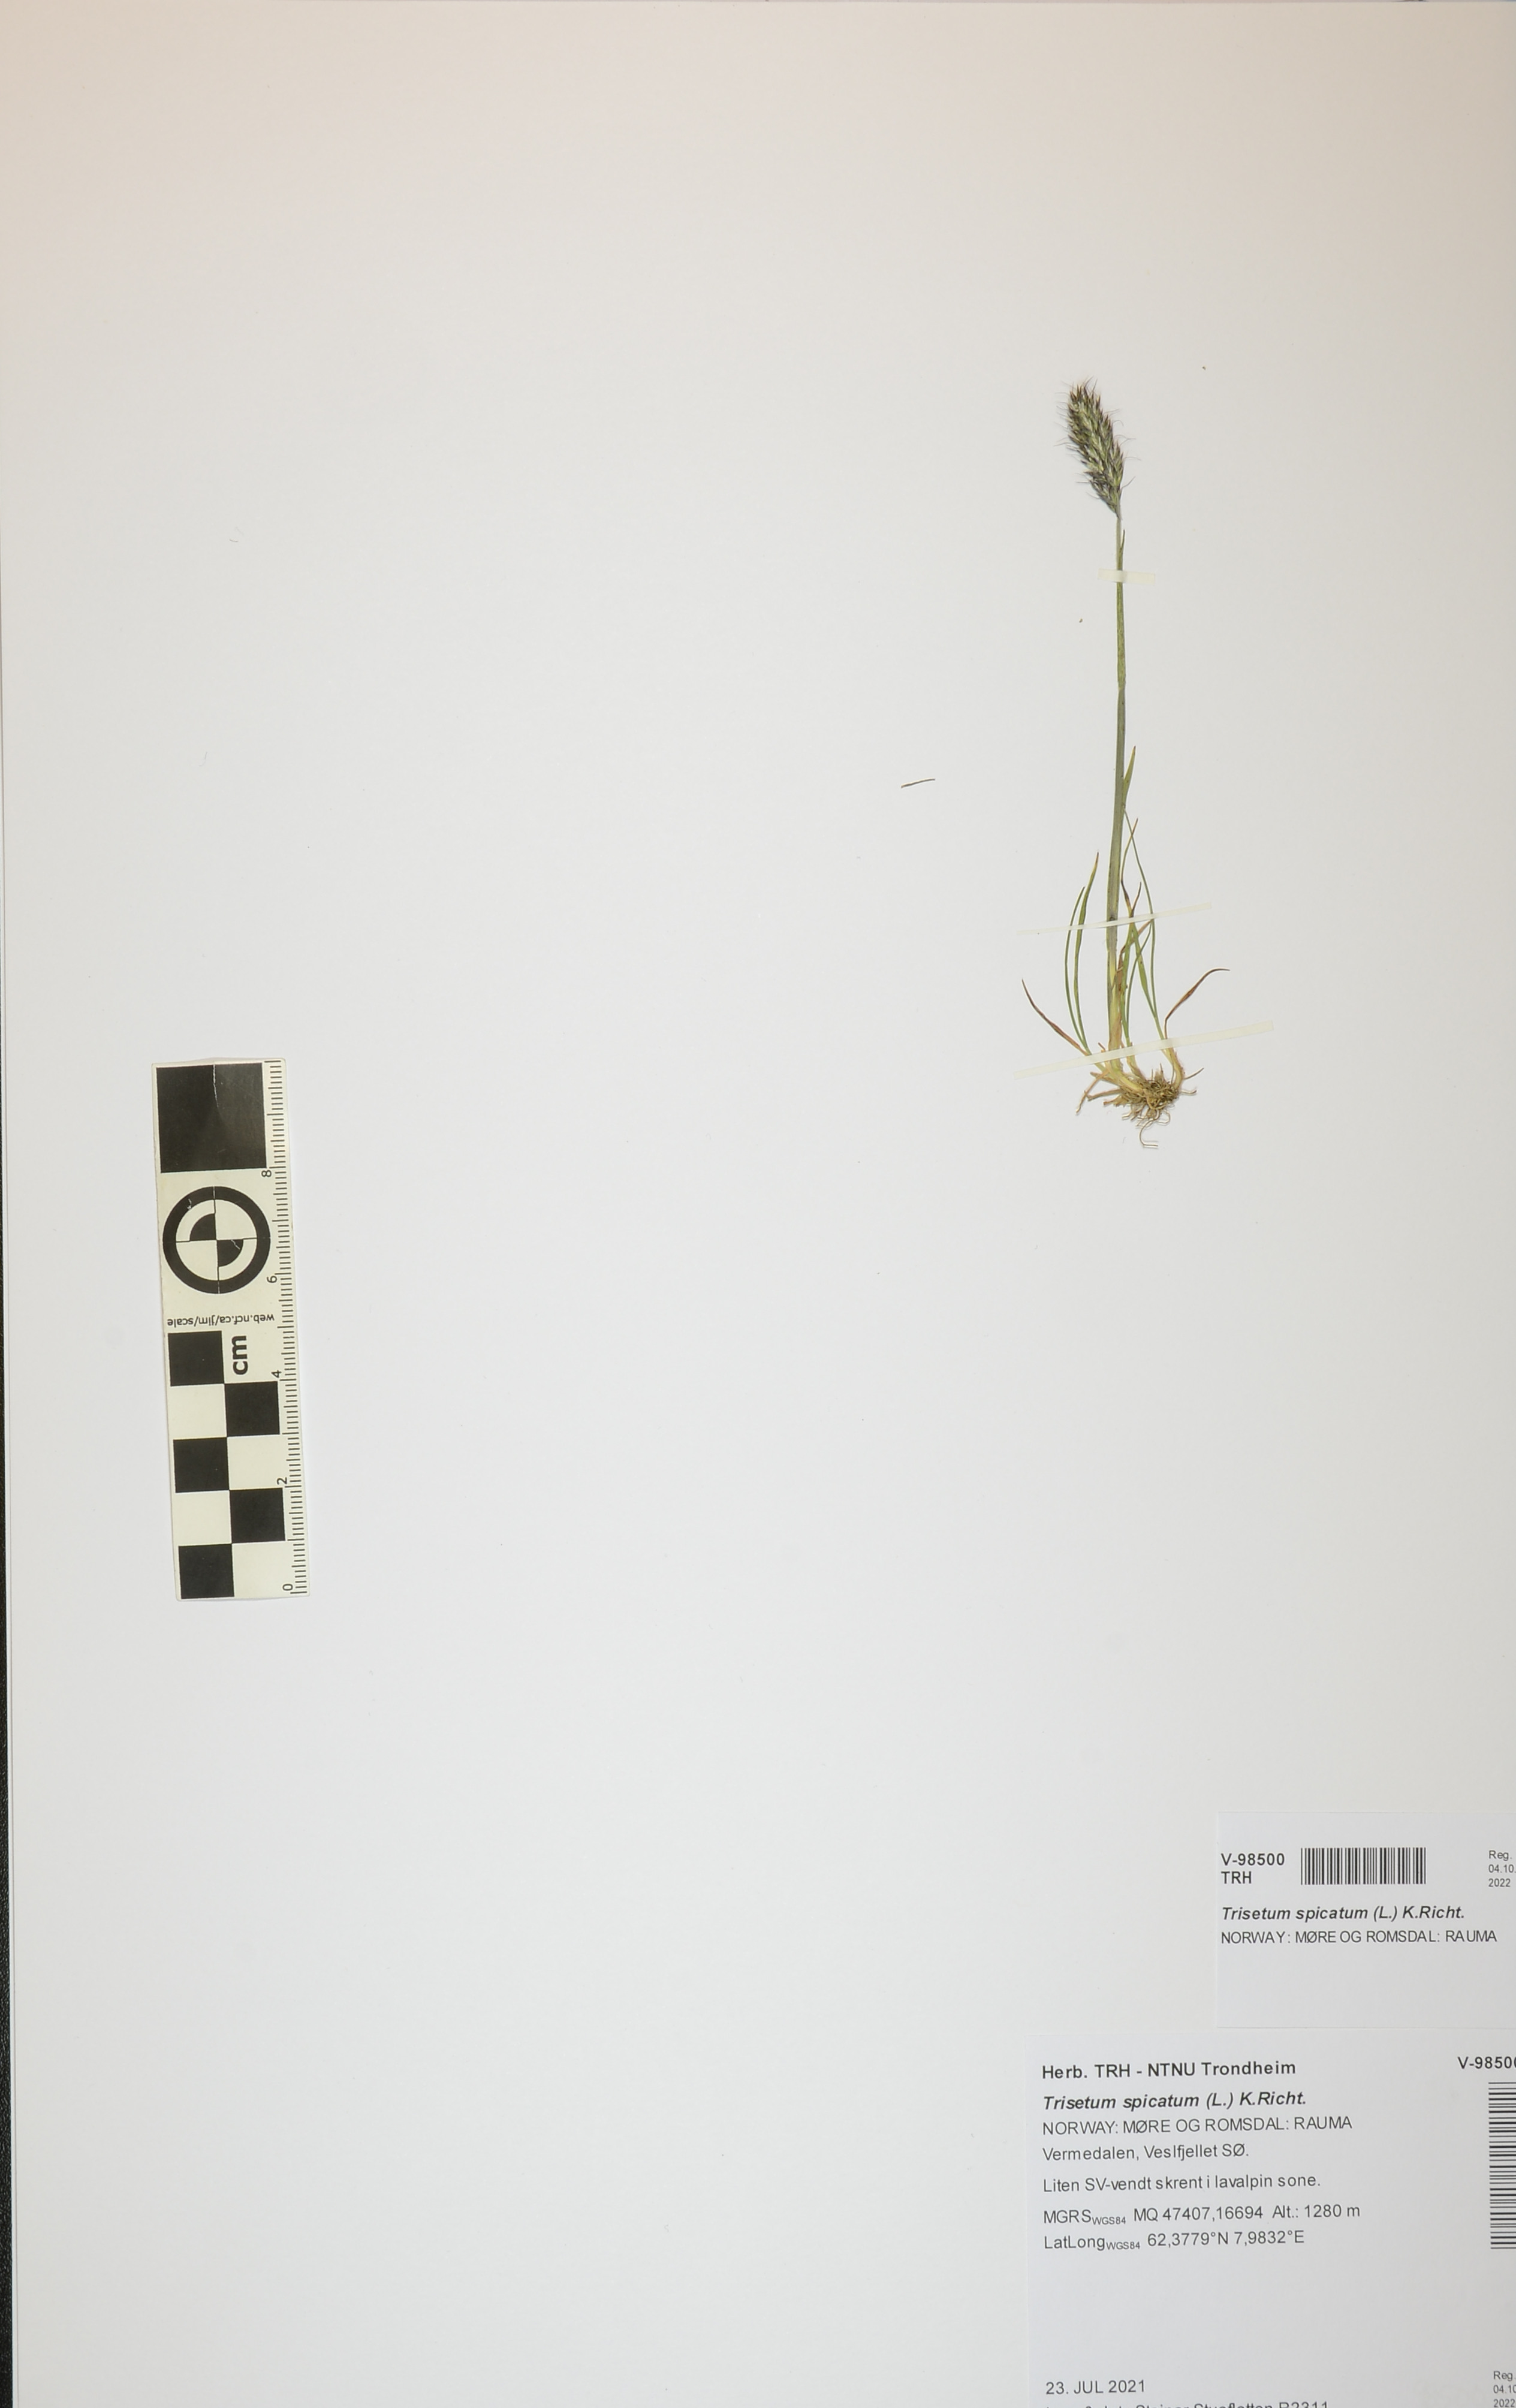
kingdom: Plantae
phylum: Tracheophyta
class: Liliopsida
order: Poales
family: Poaceae
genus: Koeleria
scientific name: Koeleria spicata
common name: Mountain trisetum
